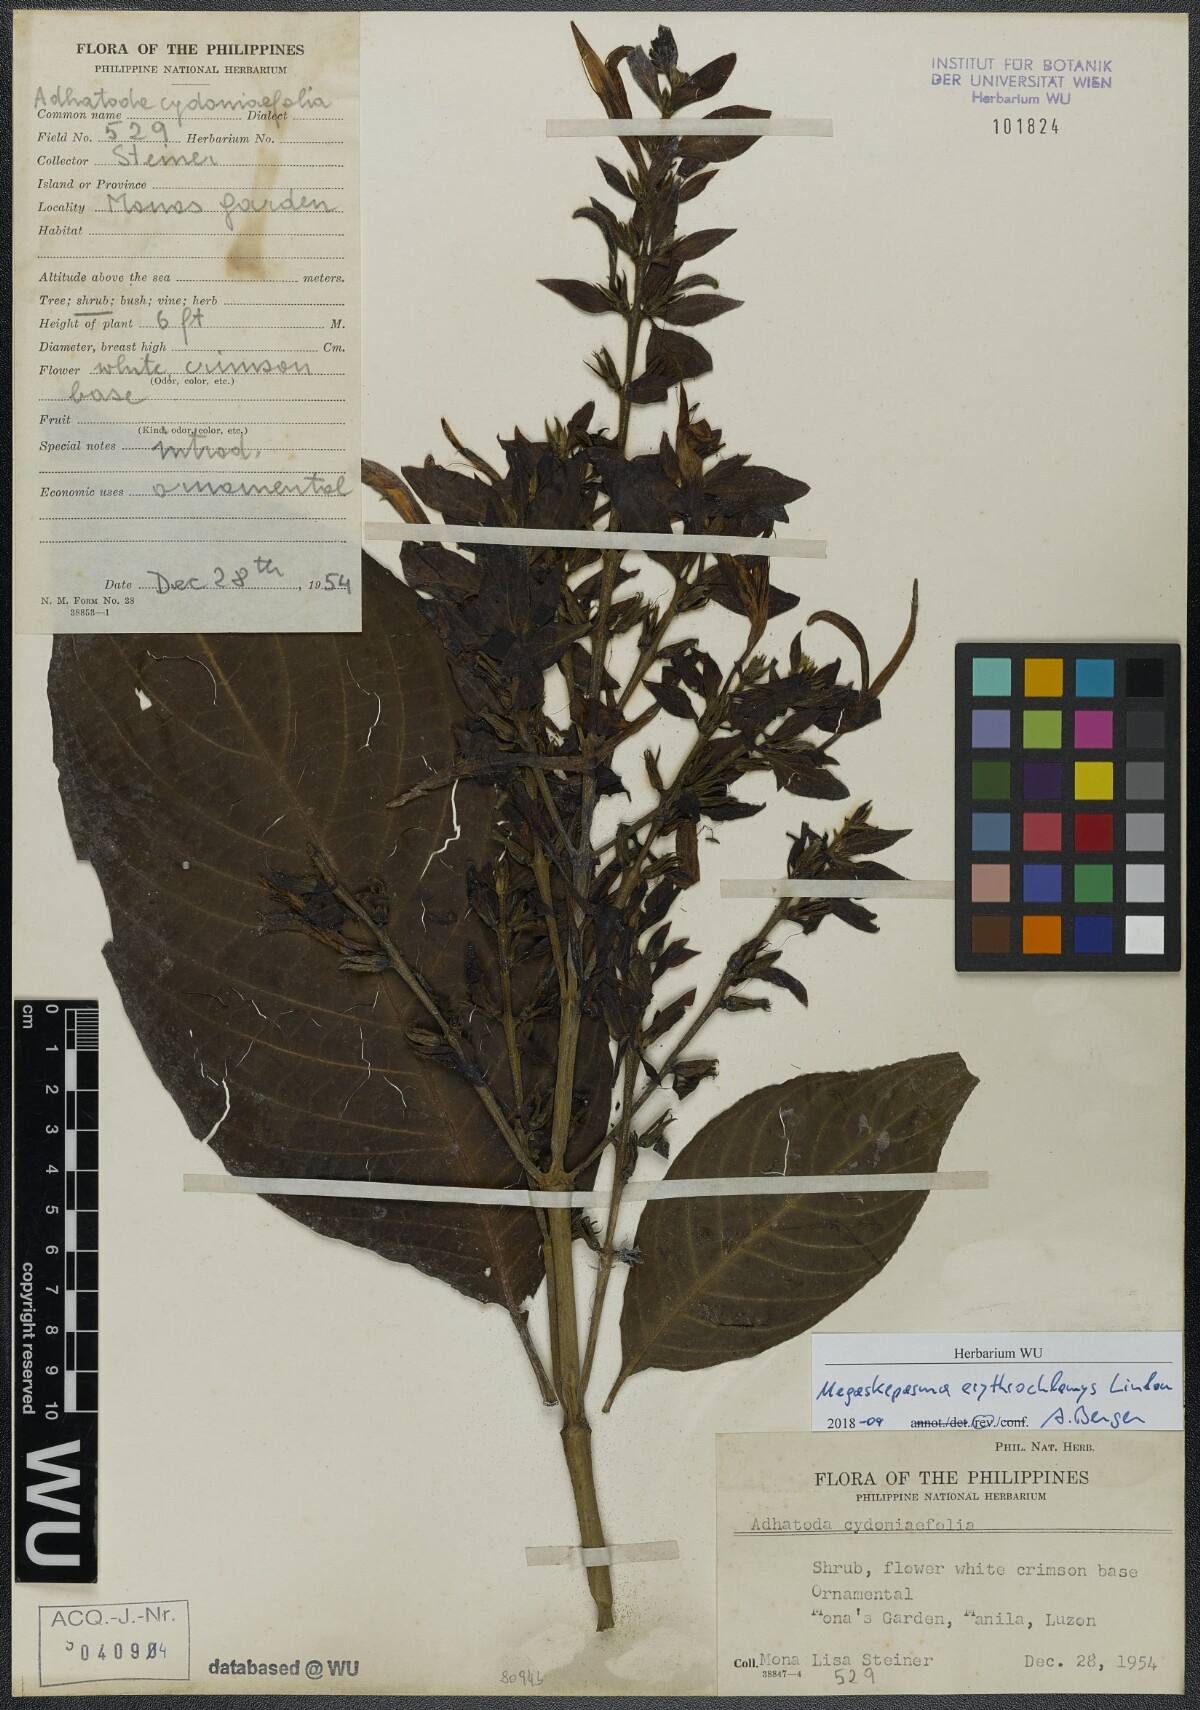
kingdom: Plantae
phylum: Tracheophyta
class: Magnoliopsida
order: Lamiales
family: Acanthaceae
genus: Megaskepasma
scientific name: Megaskepasma erythrochlamys
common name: Brazilian red-cloak
